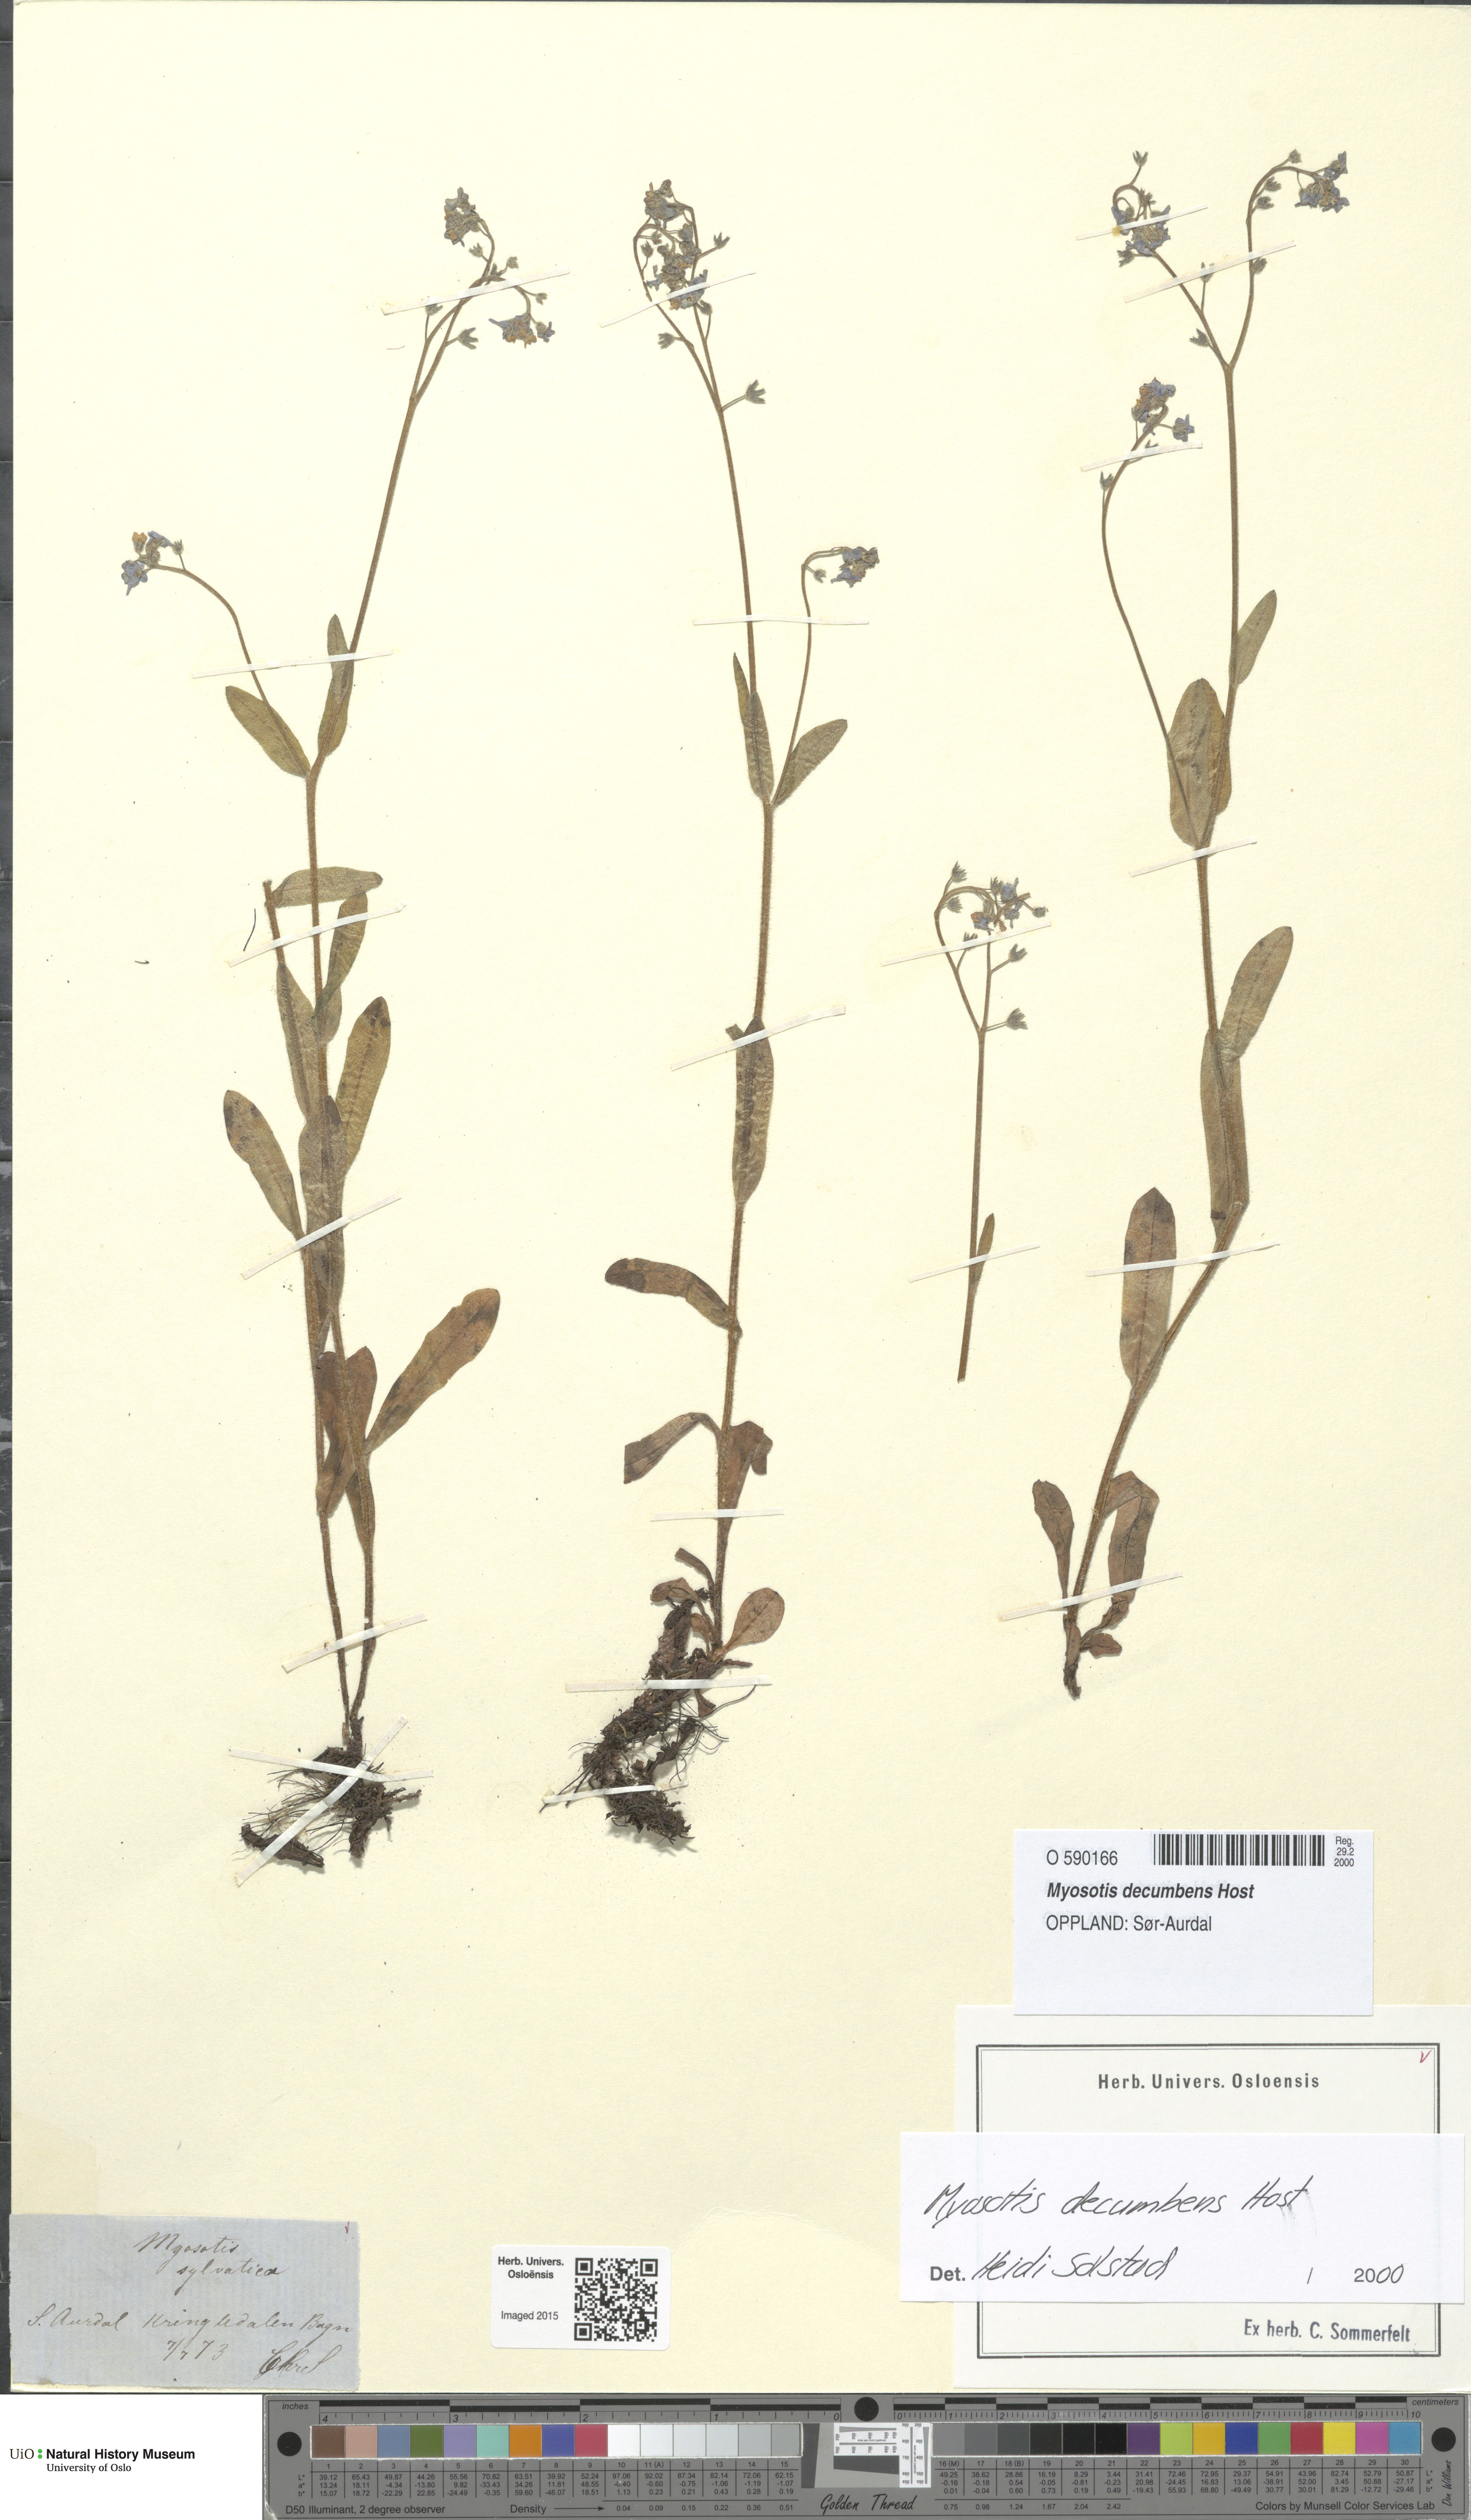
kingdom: Plantae
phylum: Tracheophyta
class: Magnoliopsida
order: Boraginales
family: Boraginaceae
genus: Myosotis
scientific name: Myosotis decumbens
